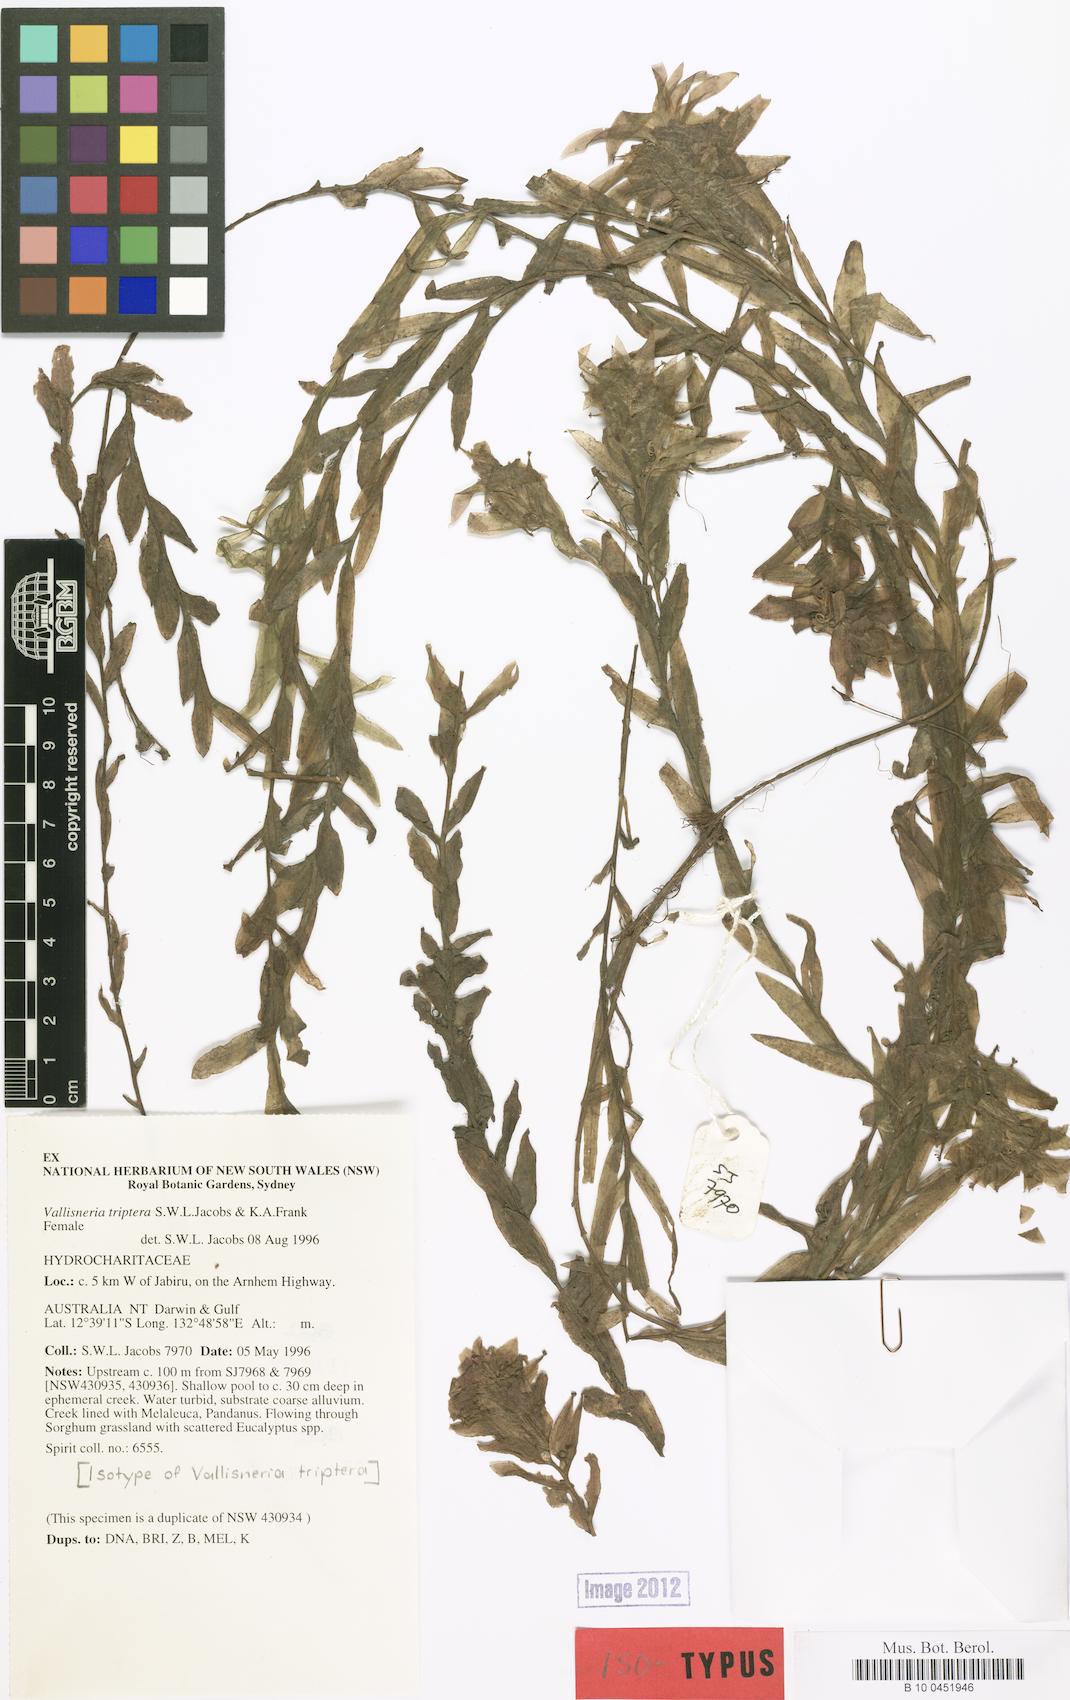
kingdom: Plantae
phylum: Tracheophyta
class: Liliopsida
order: Alismatales
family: Hydrocharitaceae
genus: Vallisneria
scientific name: Vallisneria triptera
